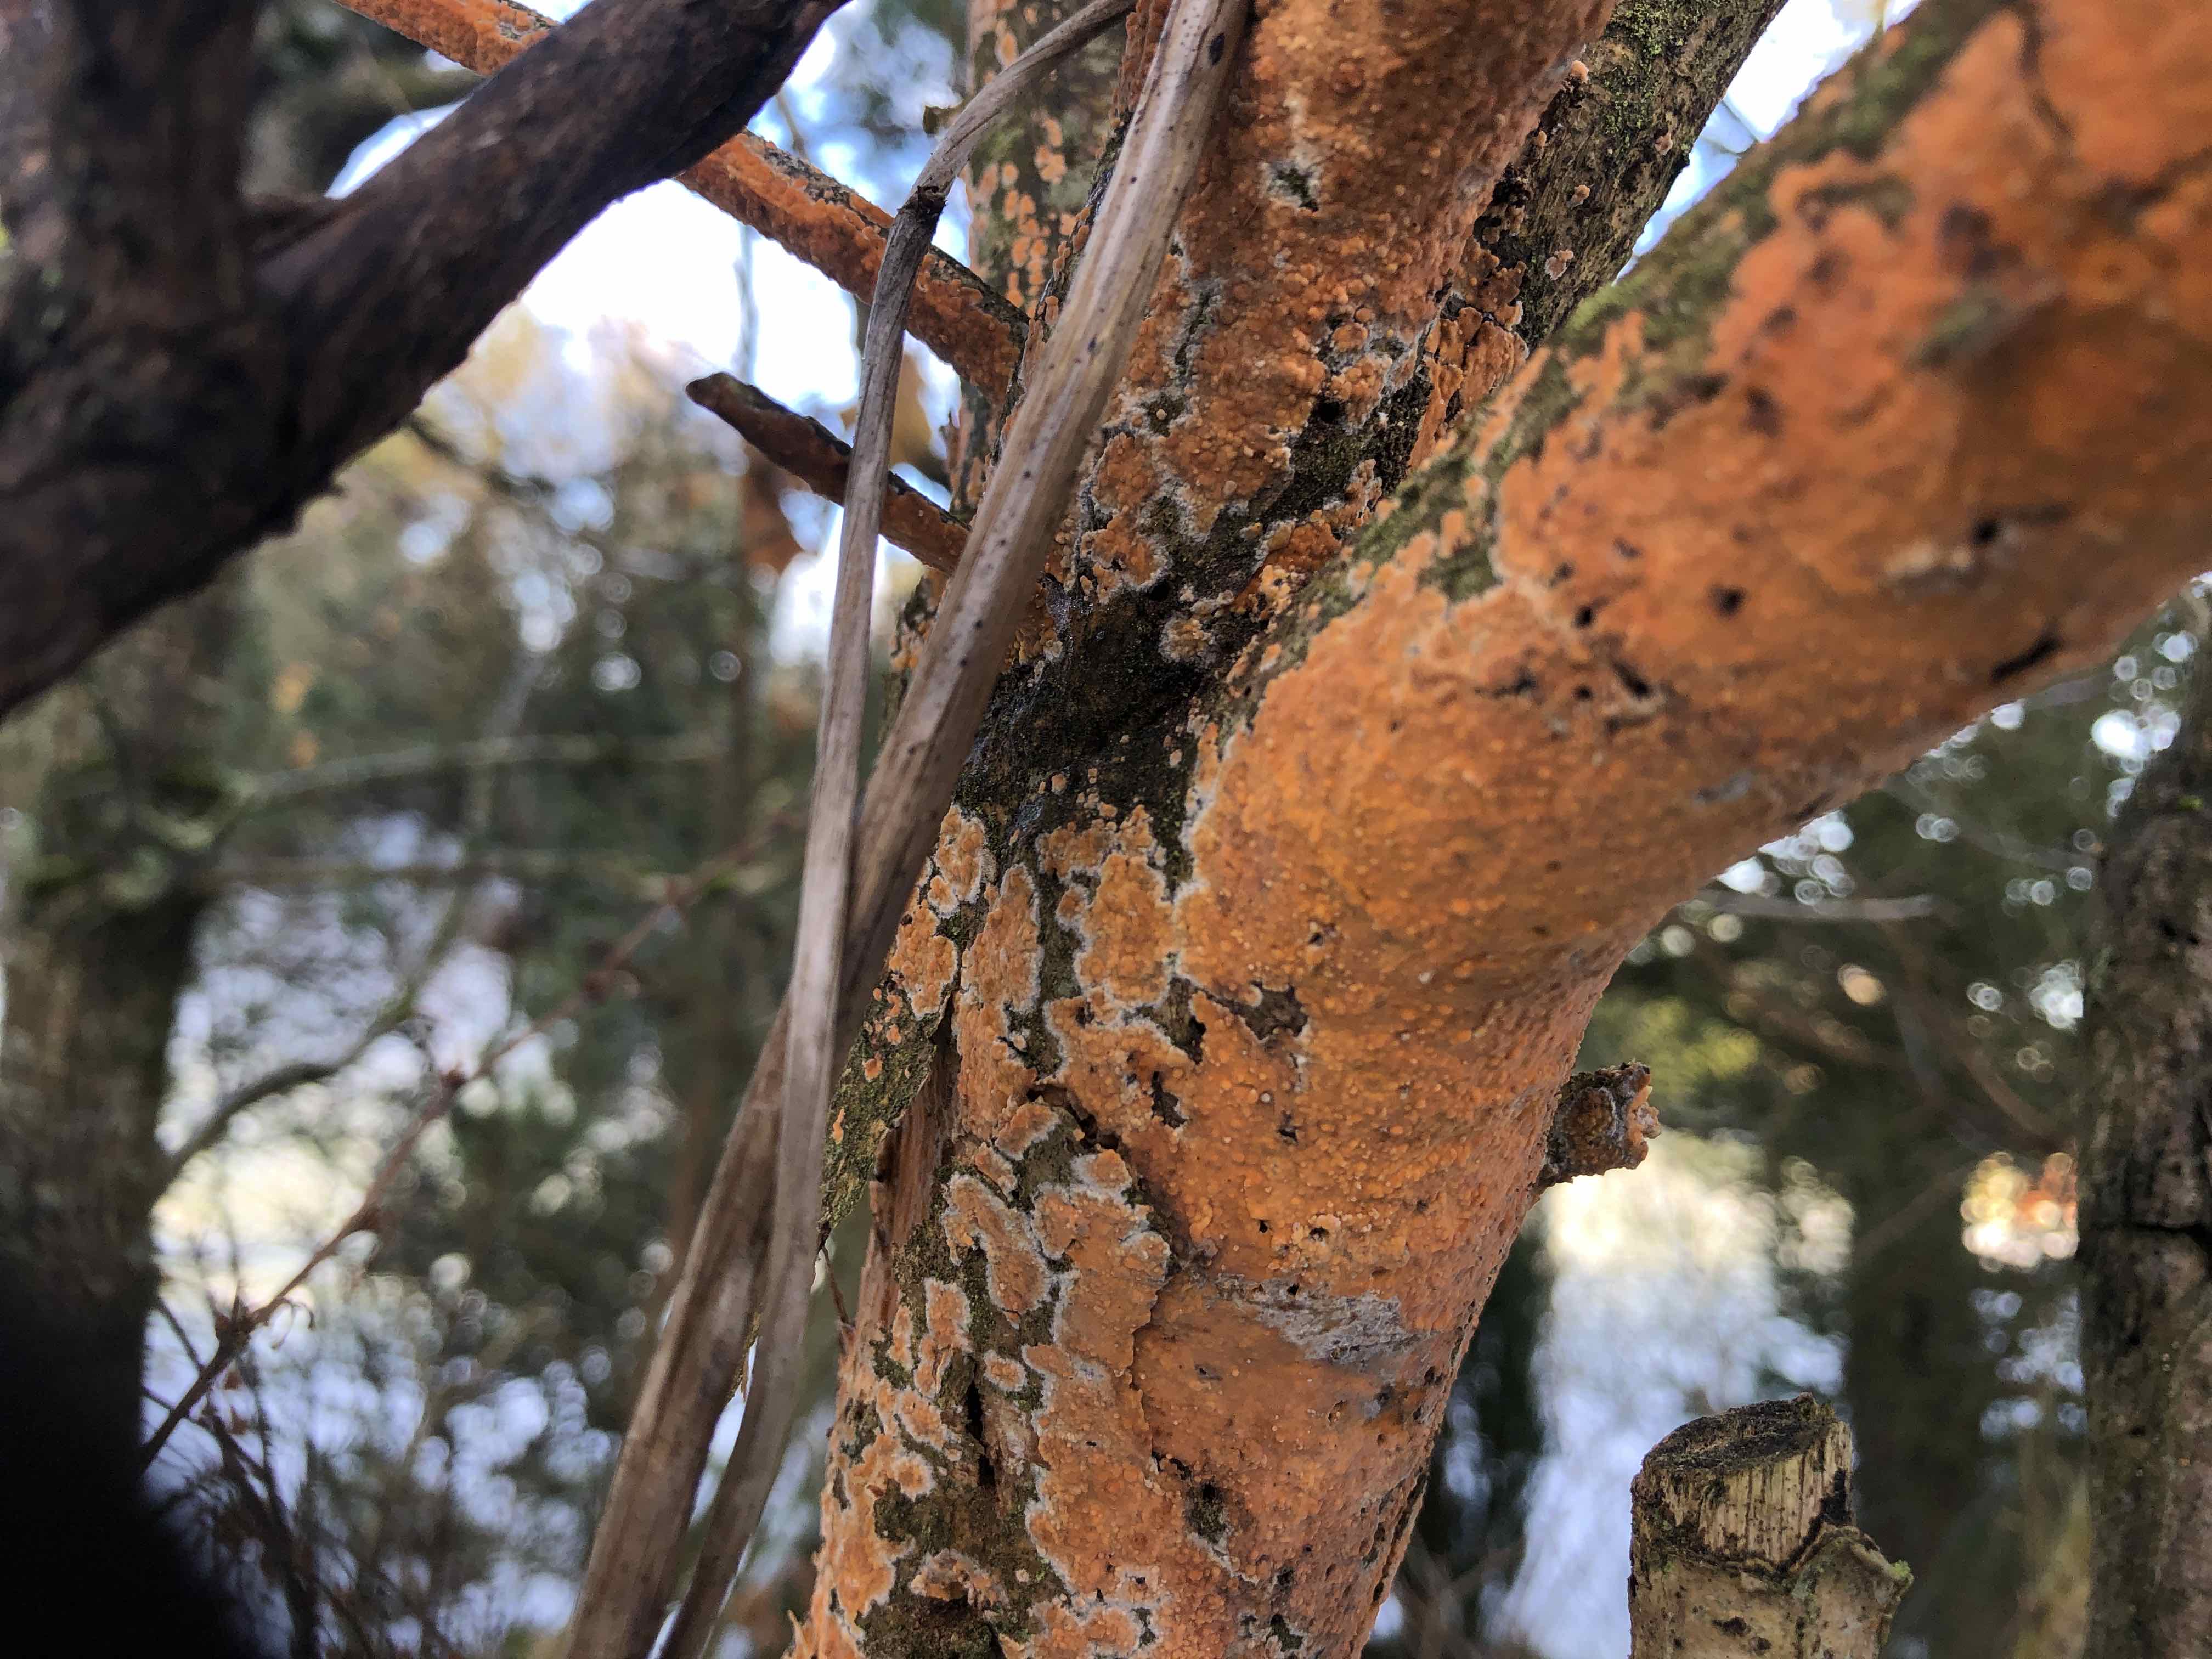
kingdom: Fungi
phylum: Basidiomycota
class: Agaricomycetes
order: Russulales
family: Peniophoraceae
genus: Peniophora
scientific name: Peniophora incarnata
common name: laksefarvet voksskind
